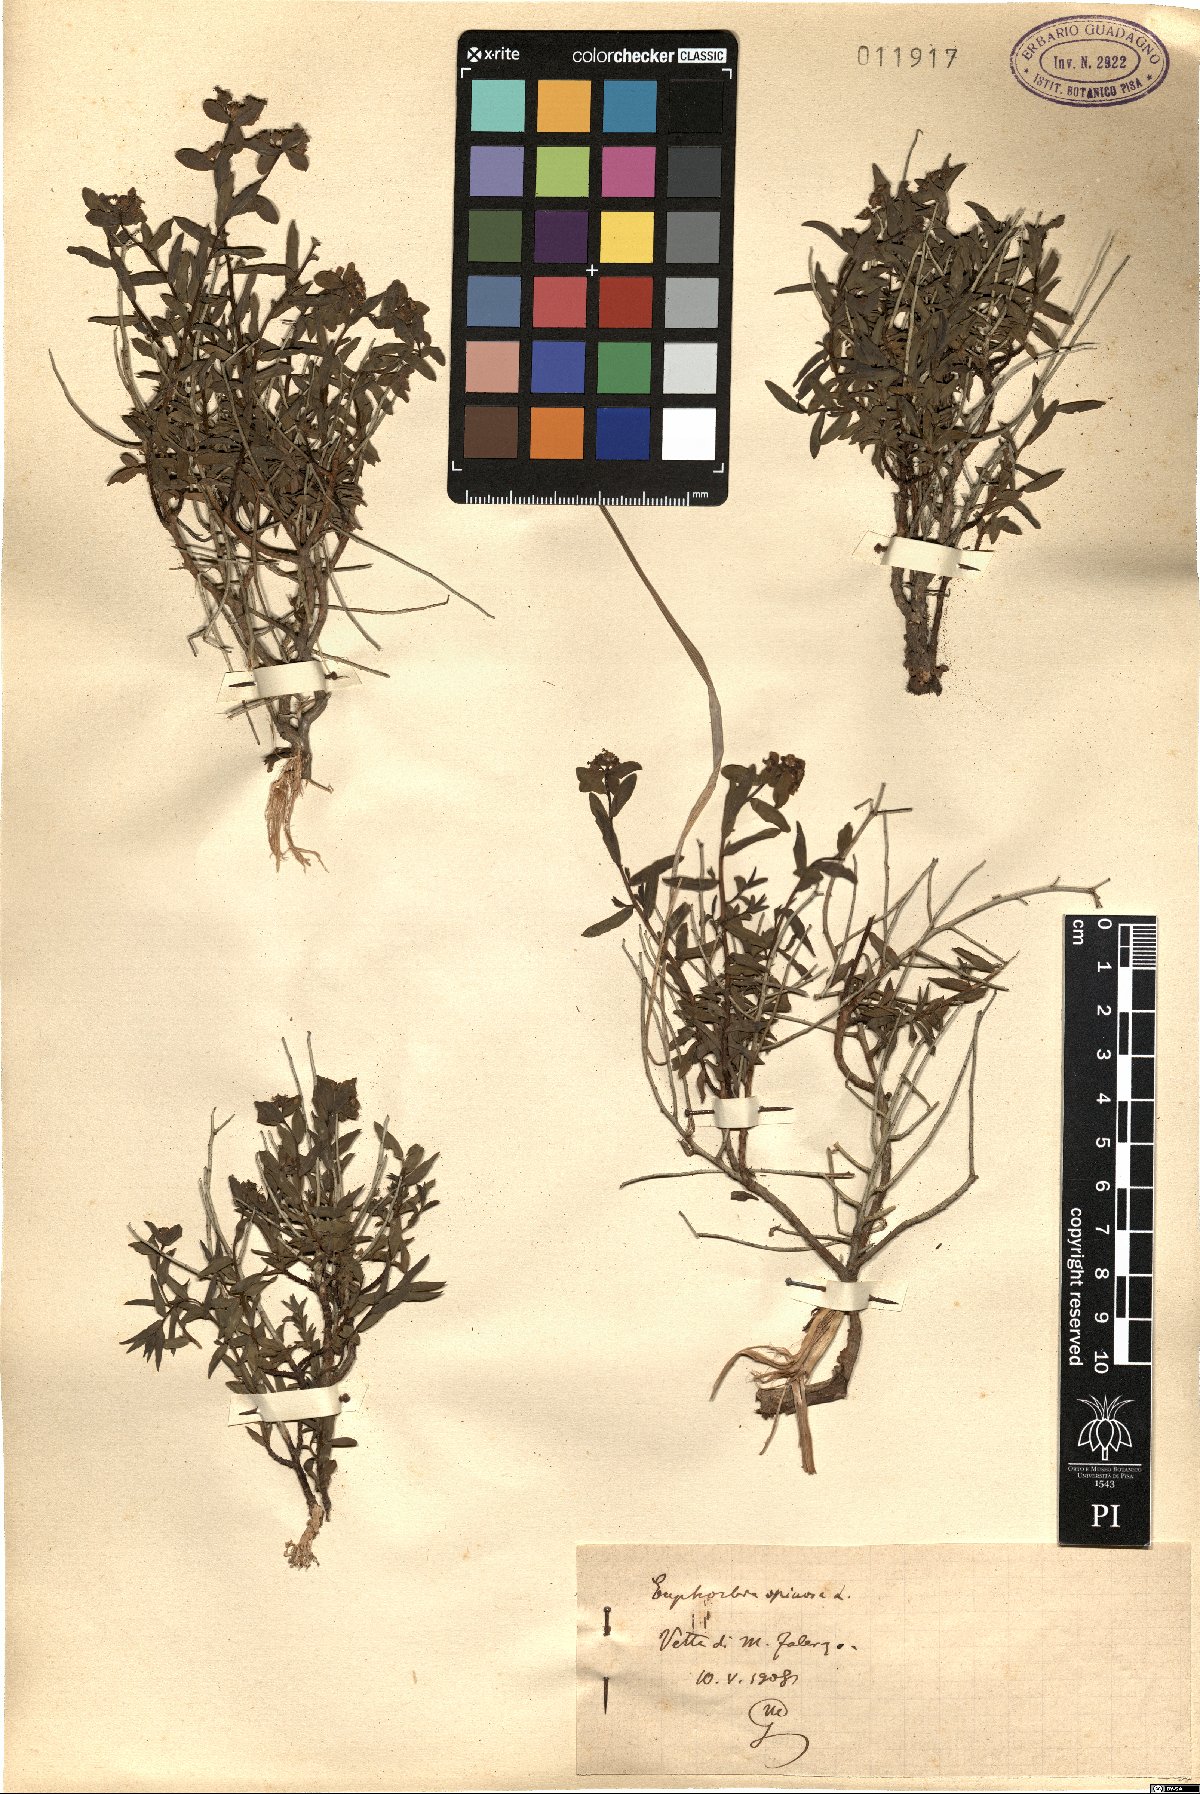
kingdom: Plantae
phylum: Tracheophyta
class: Magnoliopsida
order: Malpighiales
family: Euphorbiaceae
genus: Euphorbia
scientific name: Euphorbia spinosa
